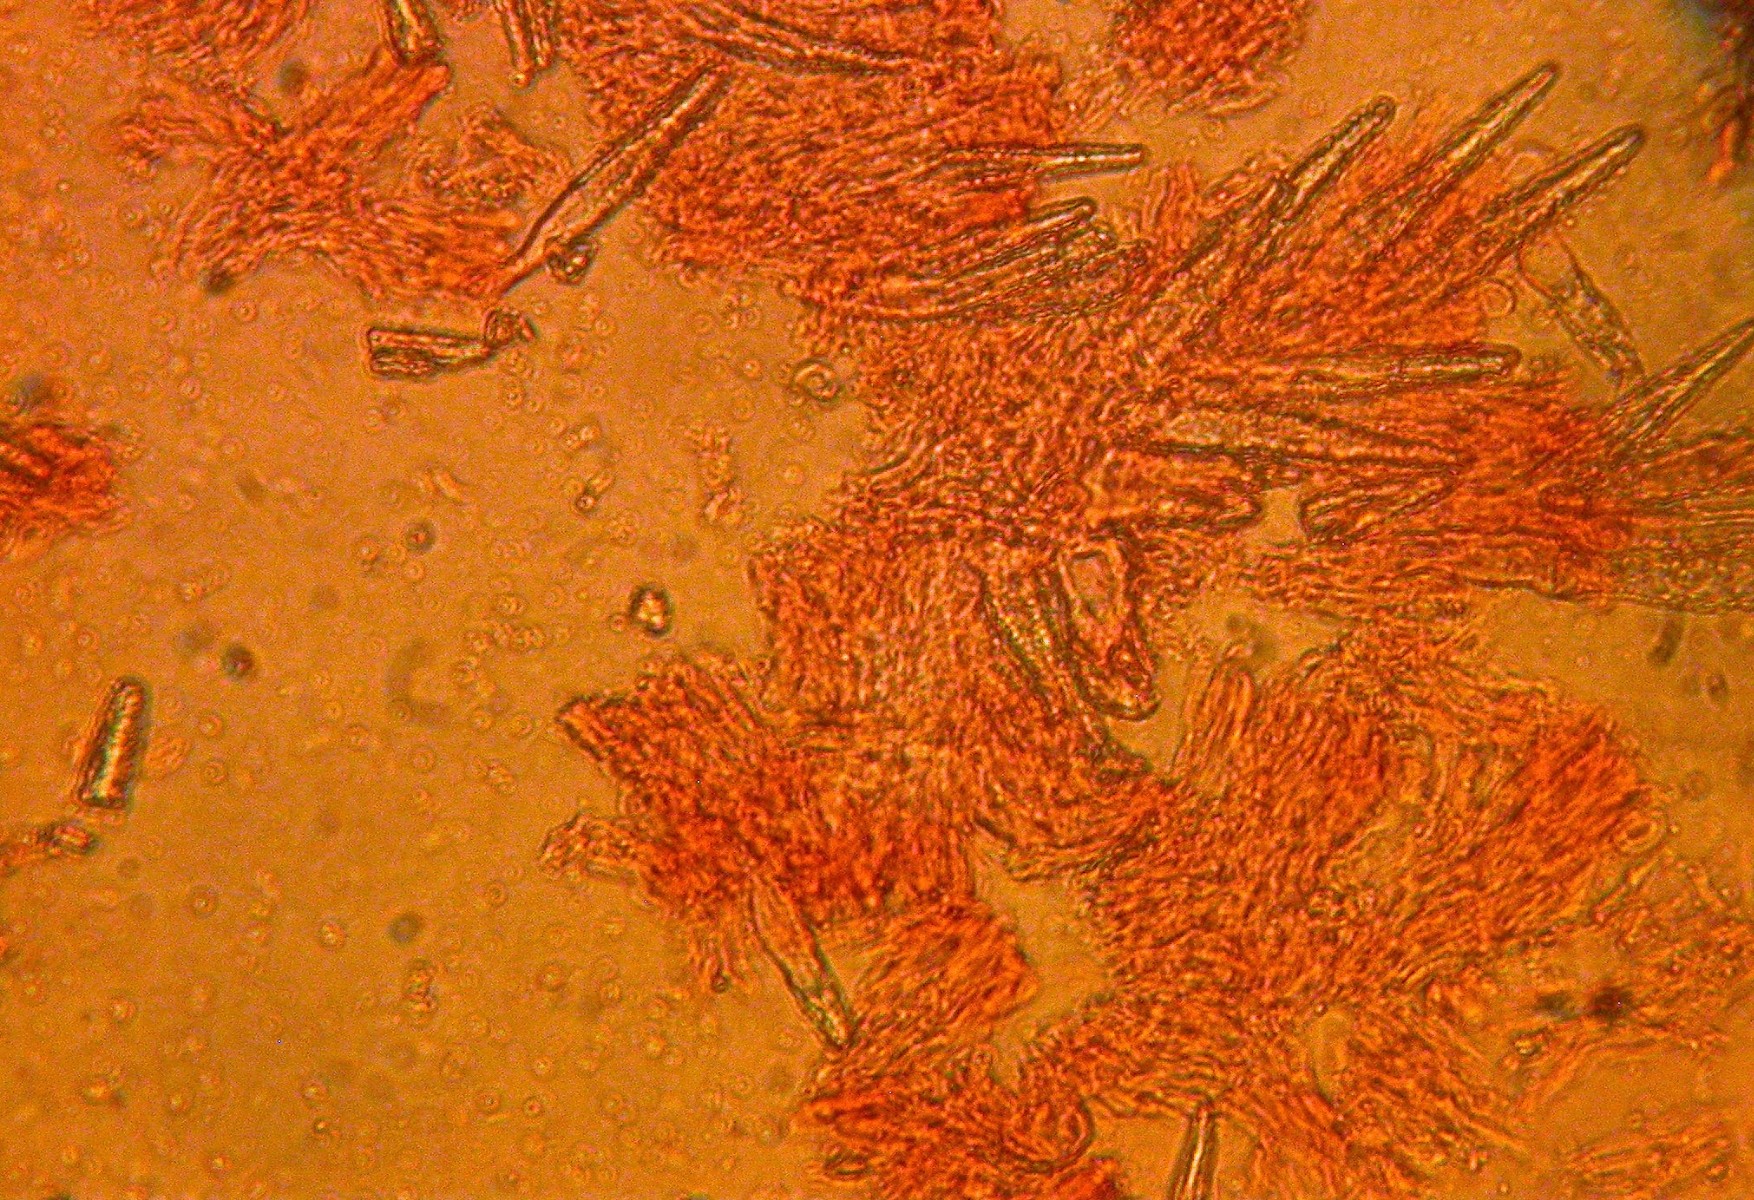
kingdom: Fungi
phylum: Basidiomycota
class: Agaricomycetes
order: Polyporales
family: Meruliaceae
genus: Scopuloides
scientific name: Scopuloides rimosa
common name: dughinde
